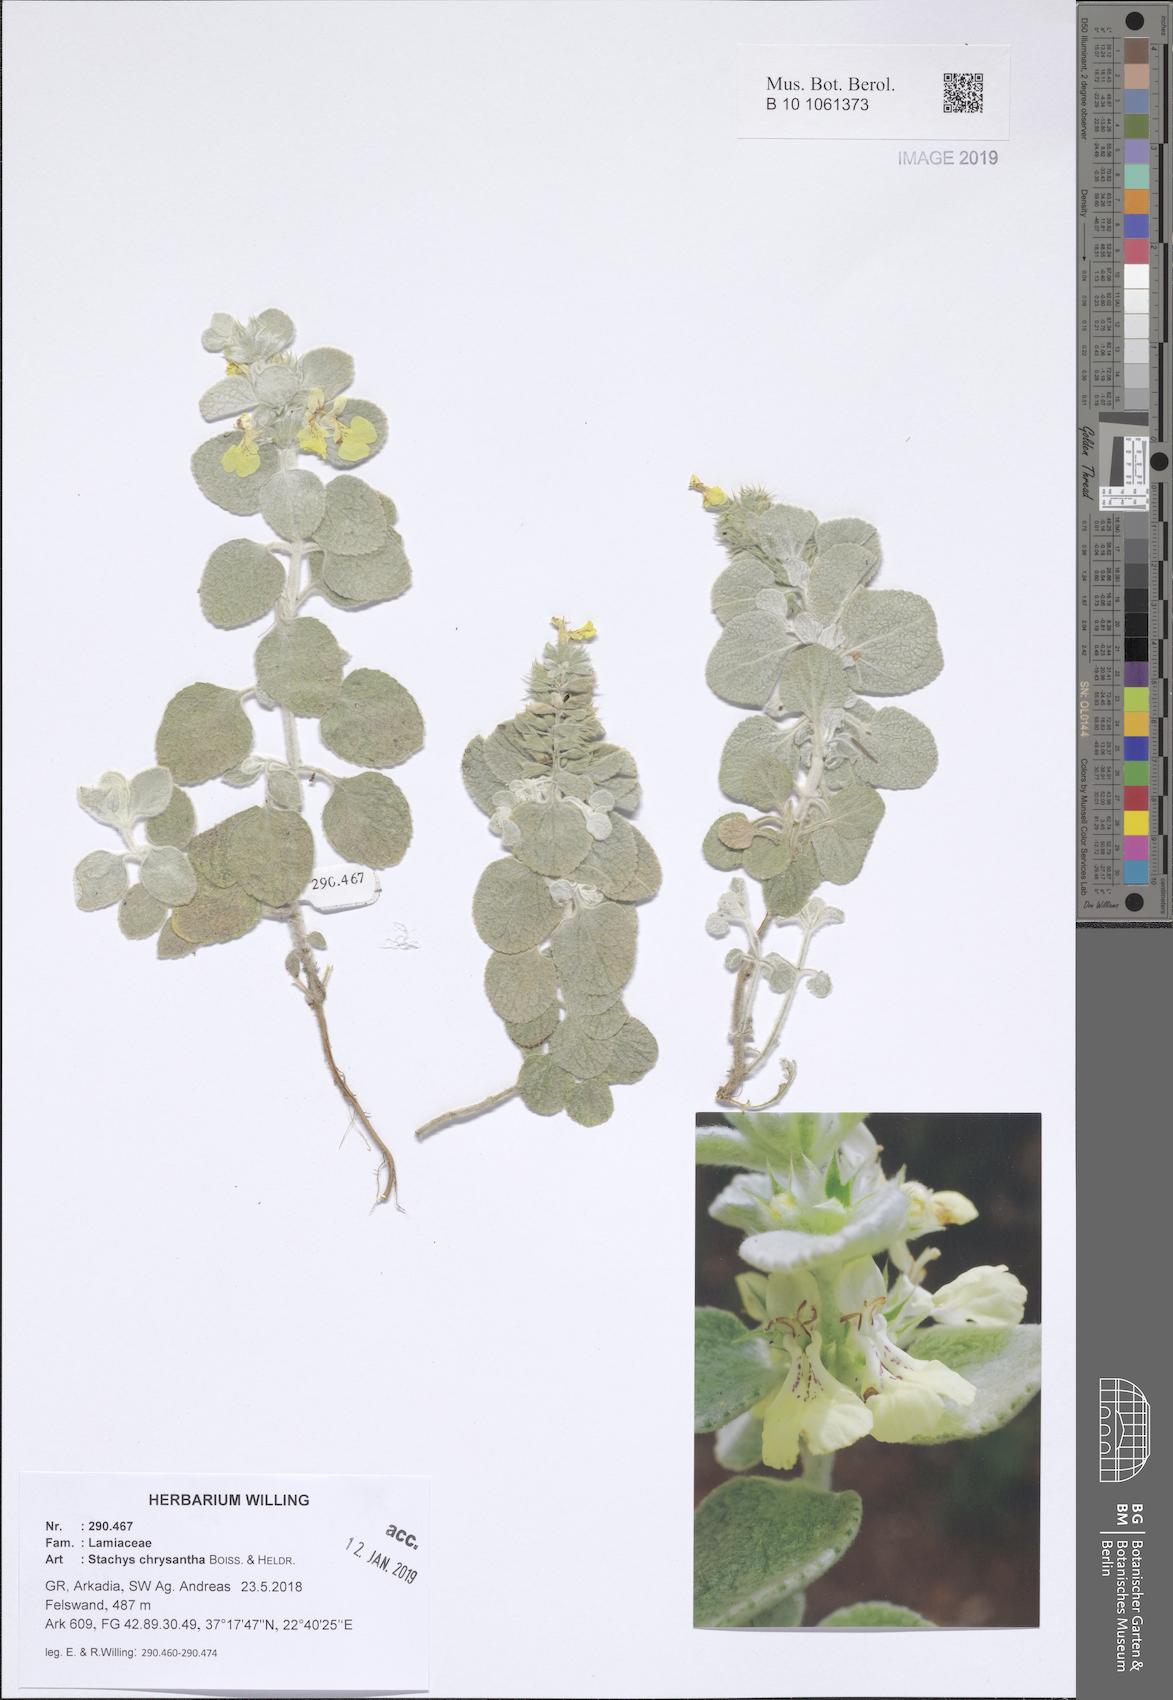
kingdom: Plantae
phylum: Tracheophyta
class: Magnoliopsida
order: Lamiales
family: Lamiaceae
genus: Stachys
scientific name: Stachys chrysantha
